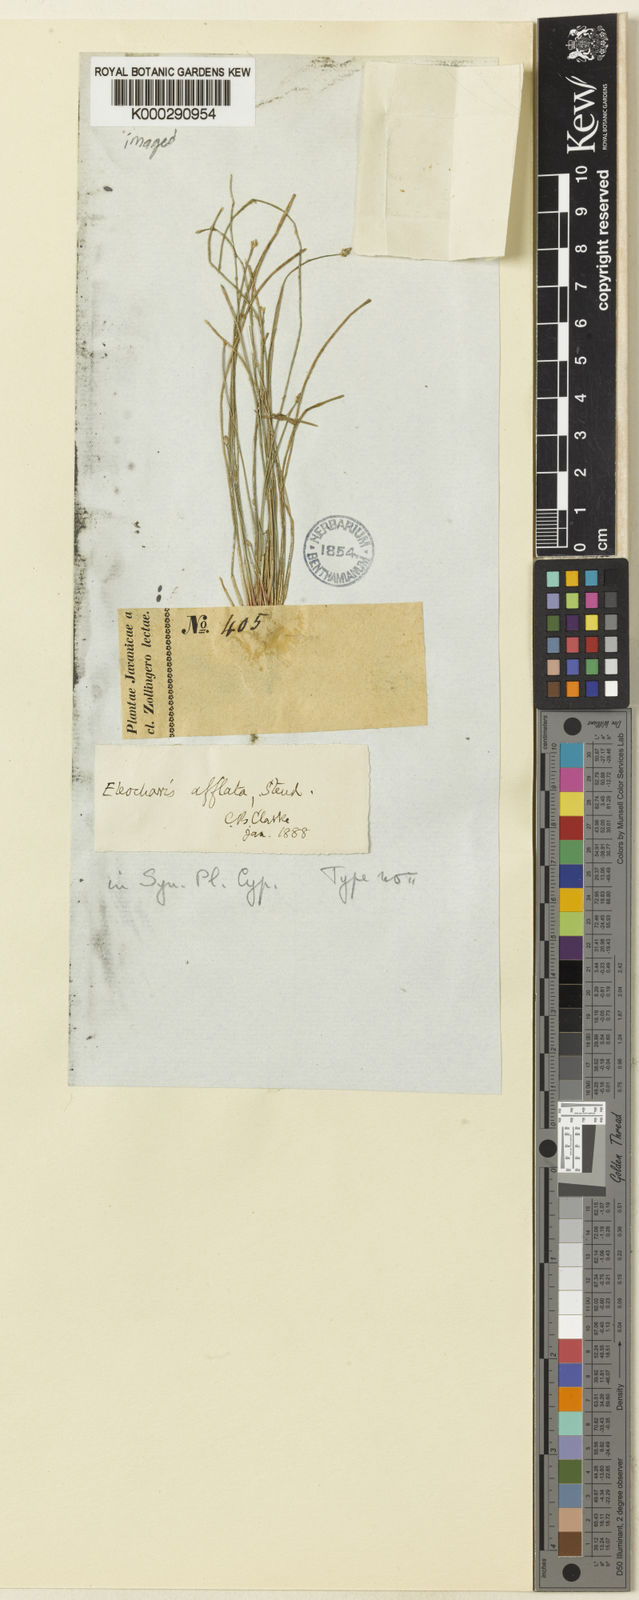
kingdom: Plantae
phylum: Tracheophyta
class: Liliopsida
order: Poales
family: Cyperaceae
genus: Eleocharis
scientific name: Eleocharis congesta
